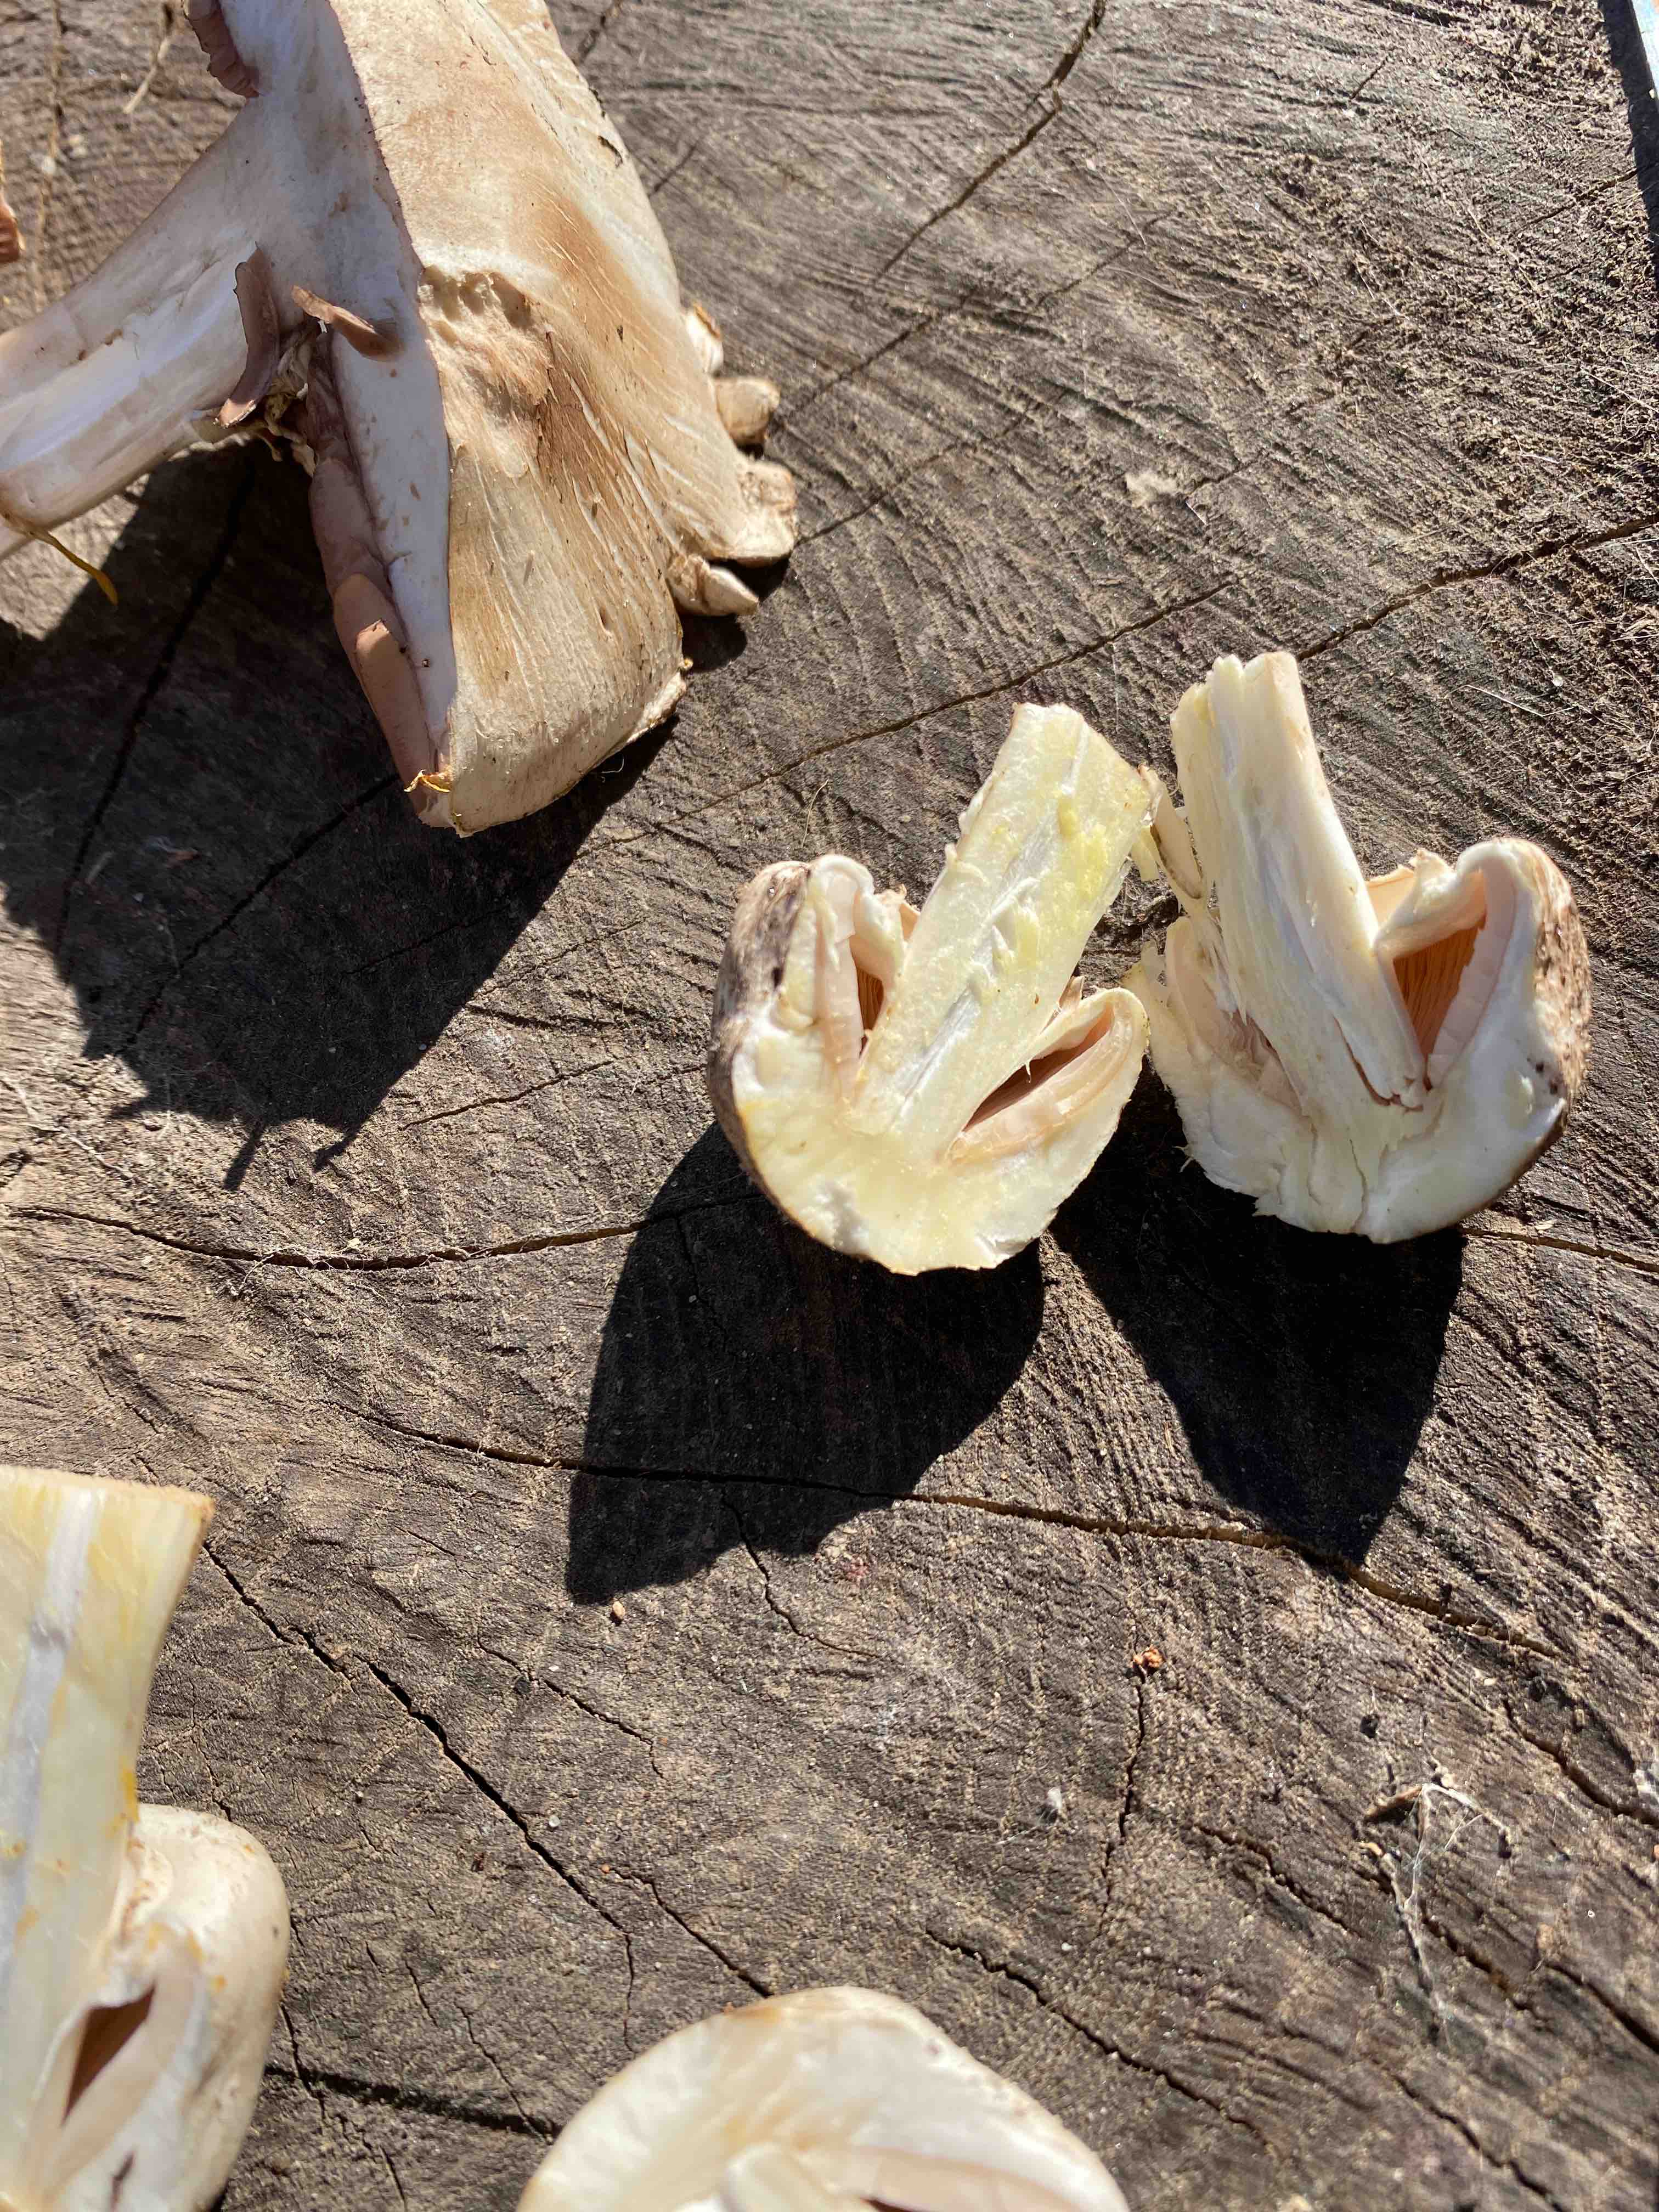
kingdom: Fungi
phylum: Basidiomycota
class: Agaricomycetes
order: Agaricales
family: Agaricaceae
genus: Agaricus
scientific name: Agaricus xanthodermus
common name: karbol-champignon
